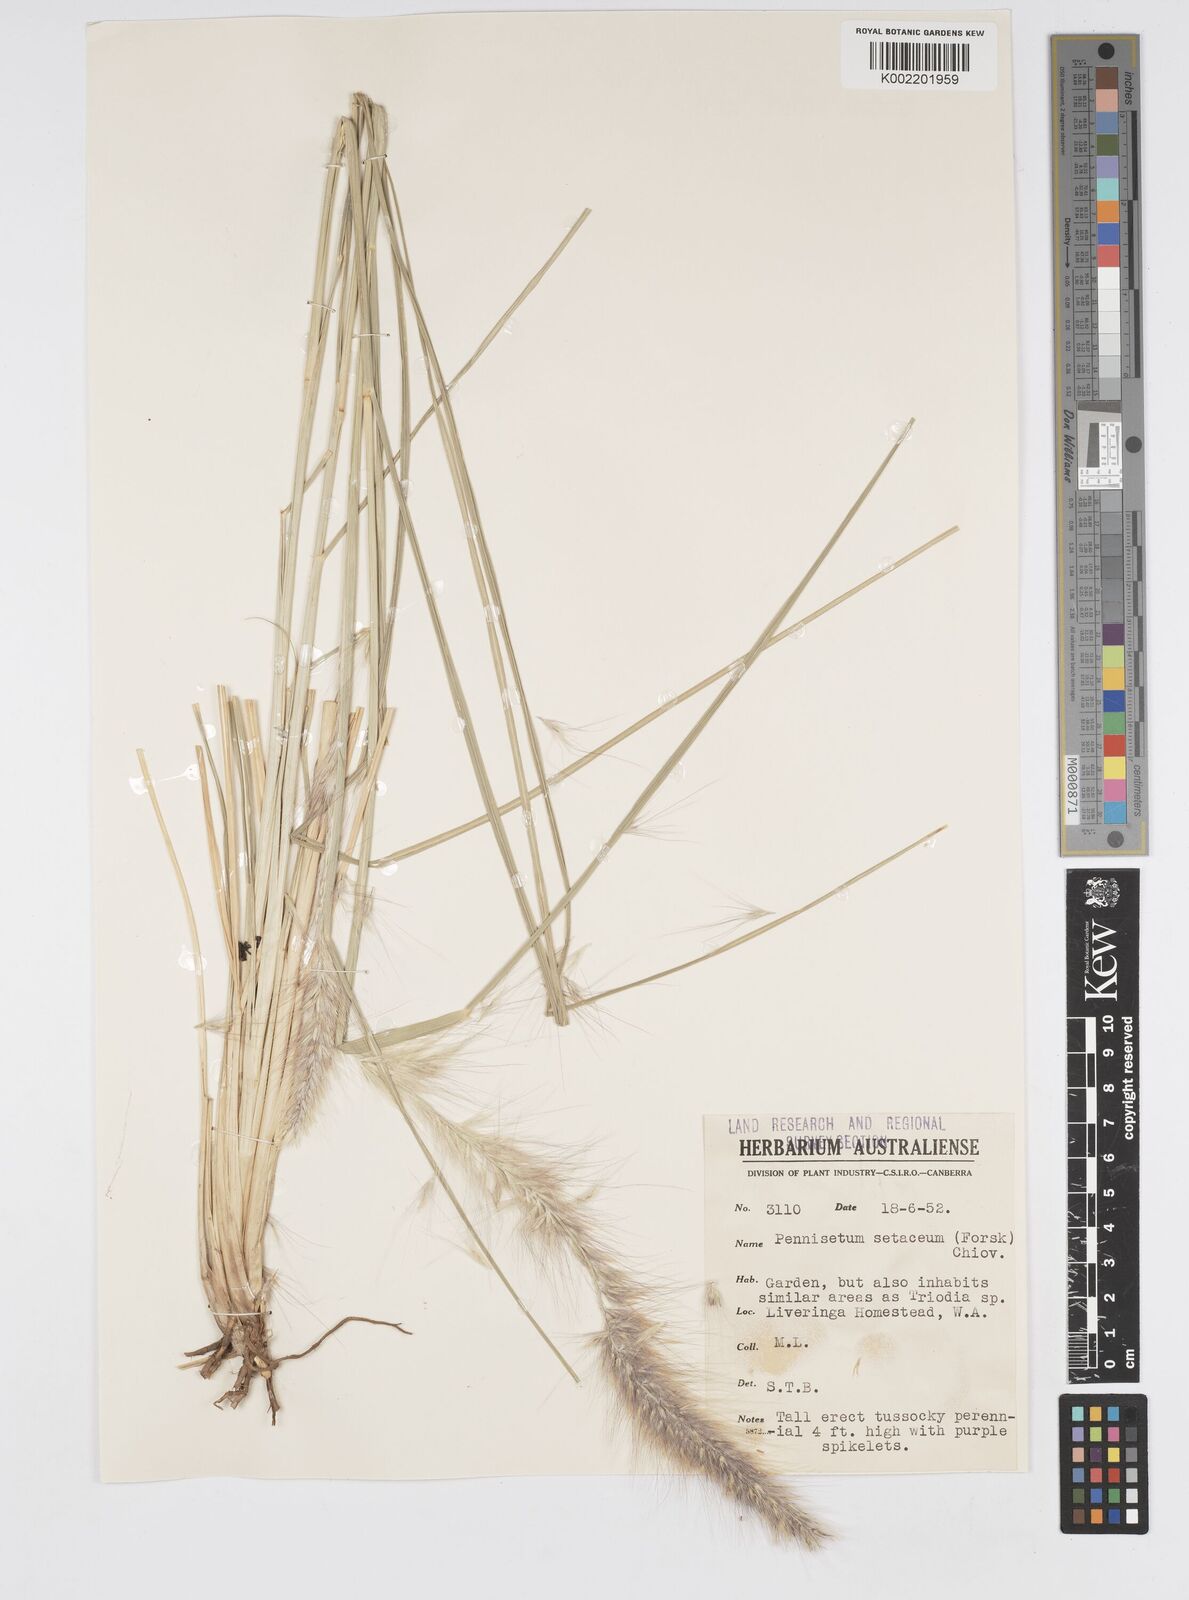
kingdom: Plantae
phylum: Tracheophyta
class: Liliopsida
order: Poales
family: Poaceae
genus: Cenchrus
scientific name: Cenchrus setaceus
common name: Crimson fountaingrass
